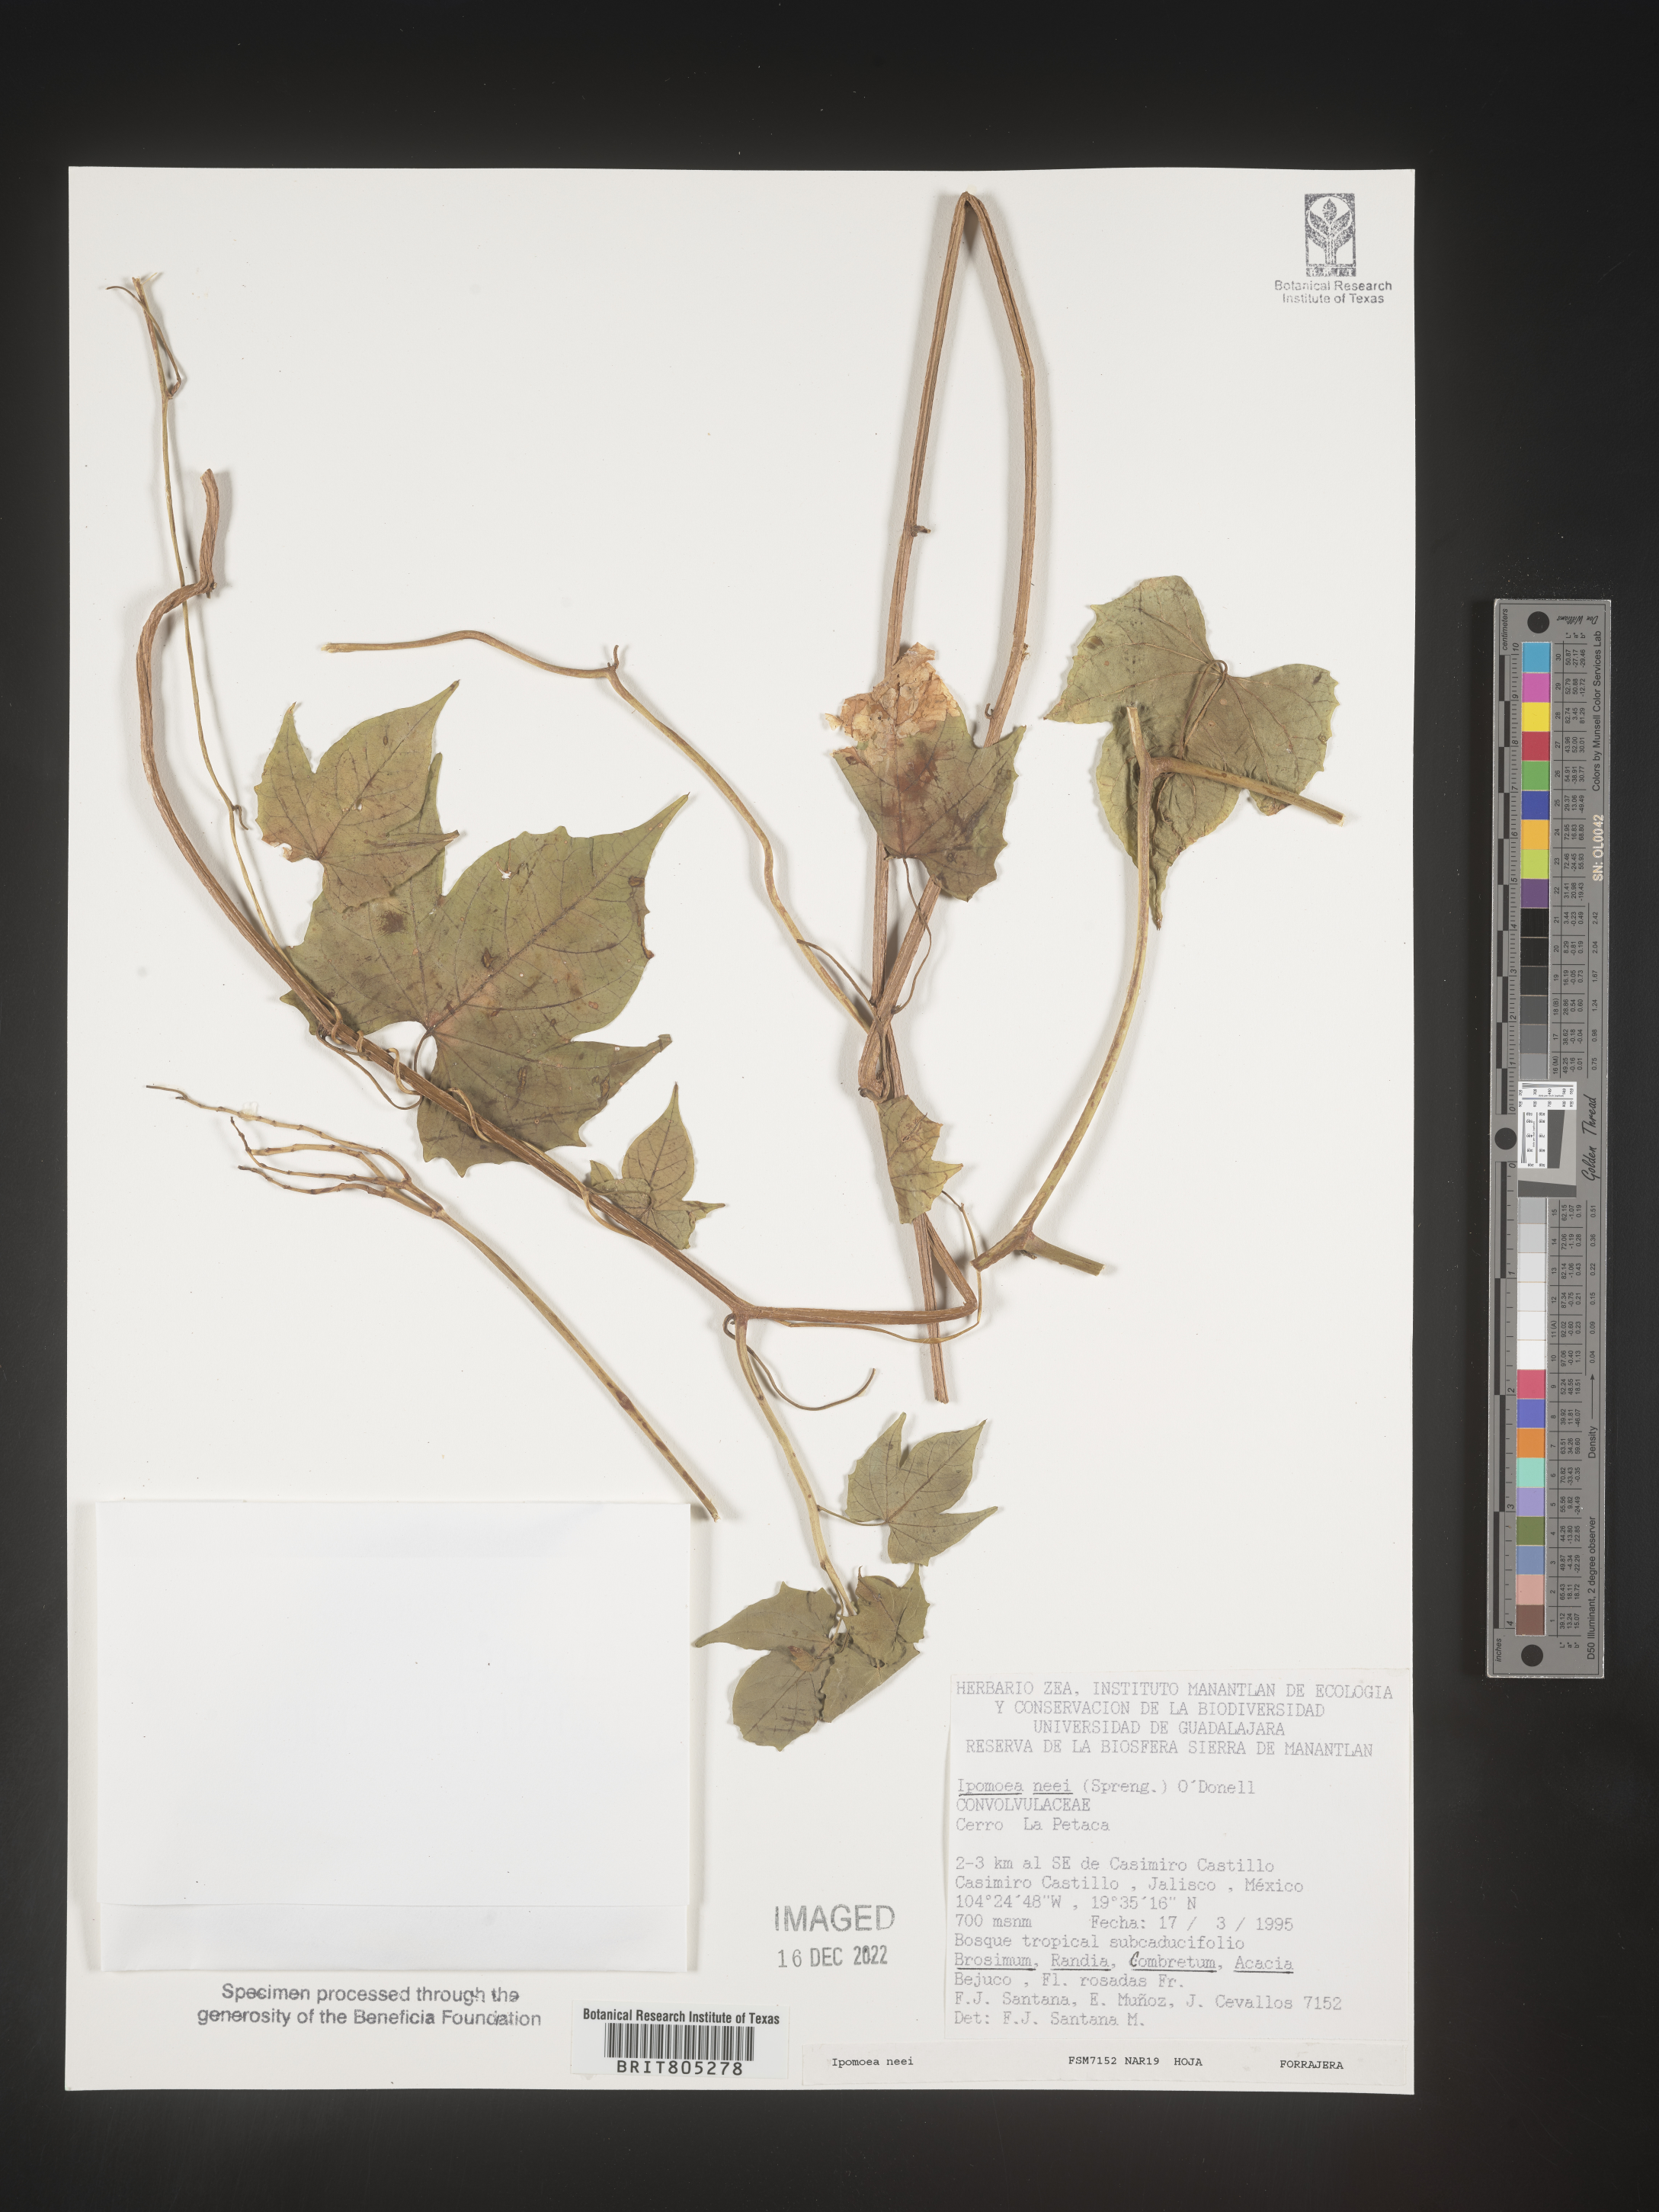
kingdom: Plantae
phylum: Tracheophyta
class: Magnoliopsida
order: Solanales
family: Convolvulaceae
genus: Ipomoea
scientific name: Ipomoea
